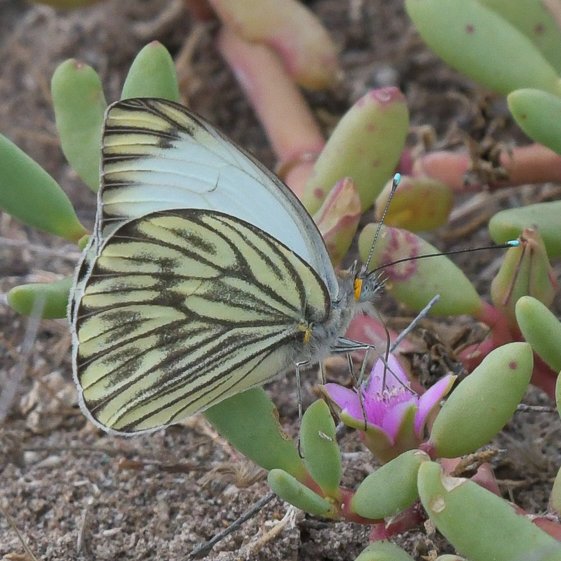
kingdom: Animalia
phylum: Arthropoda
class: Insecta
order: Lepidoptera
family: Pieridae
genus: Ascia
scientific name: Ascia monuste
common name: Great Southern White
